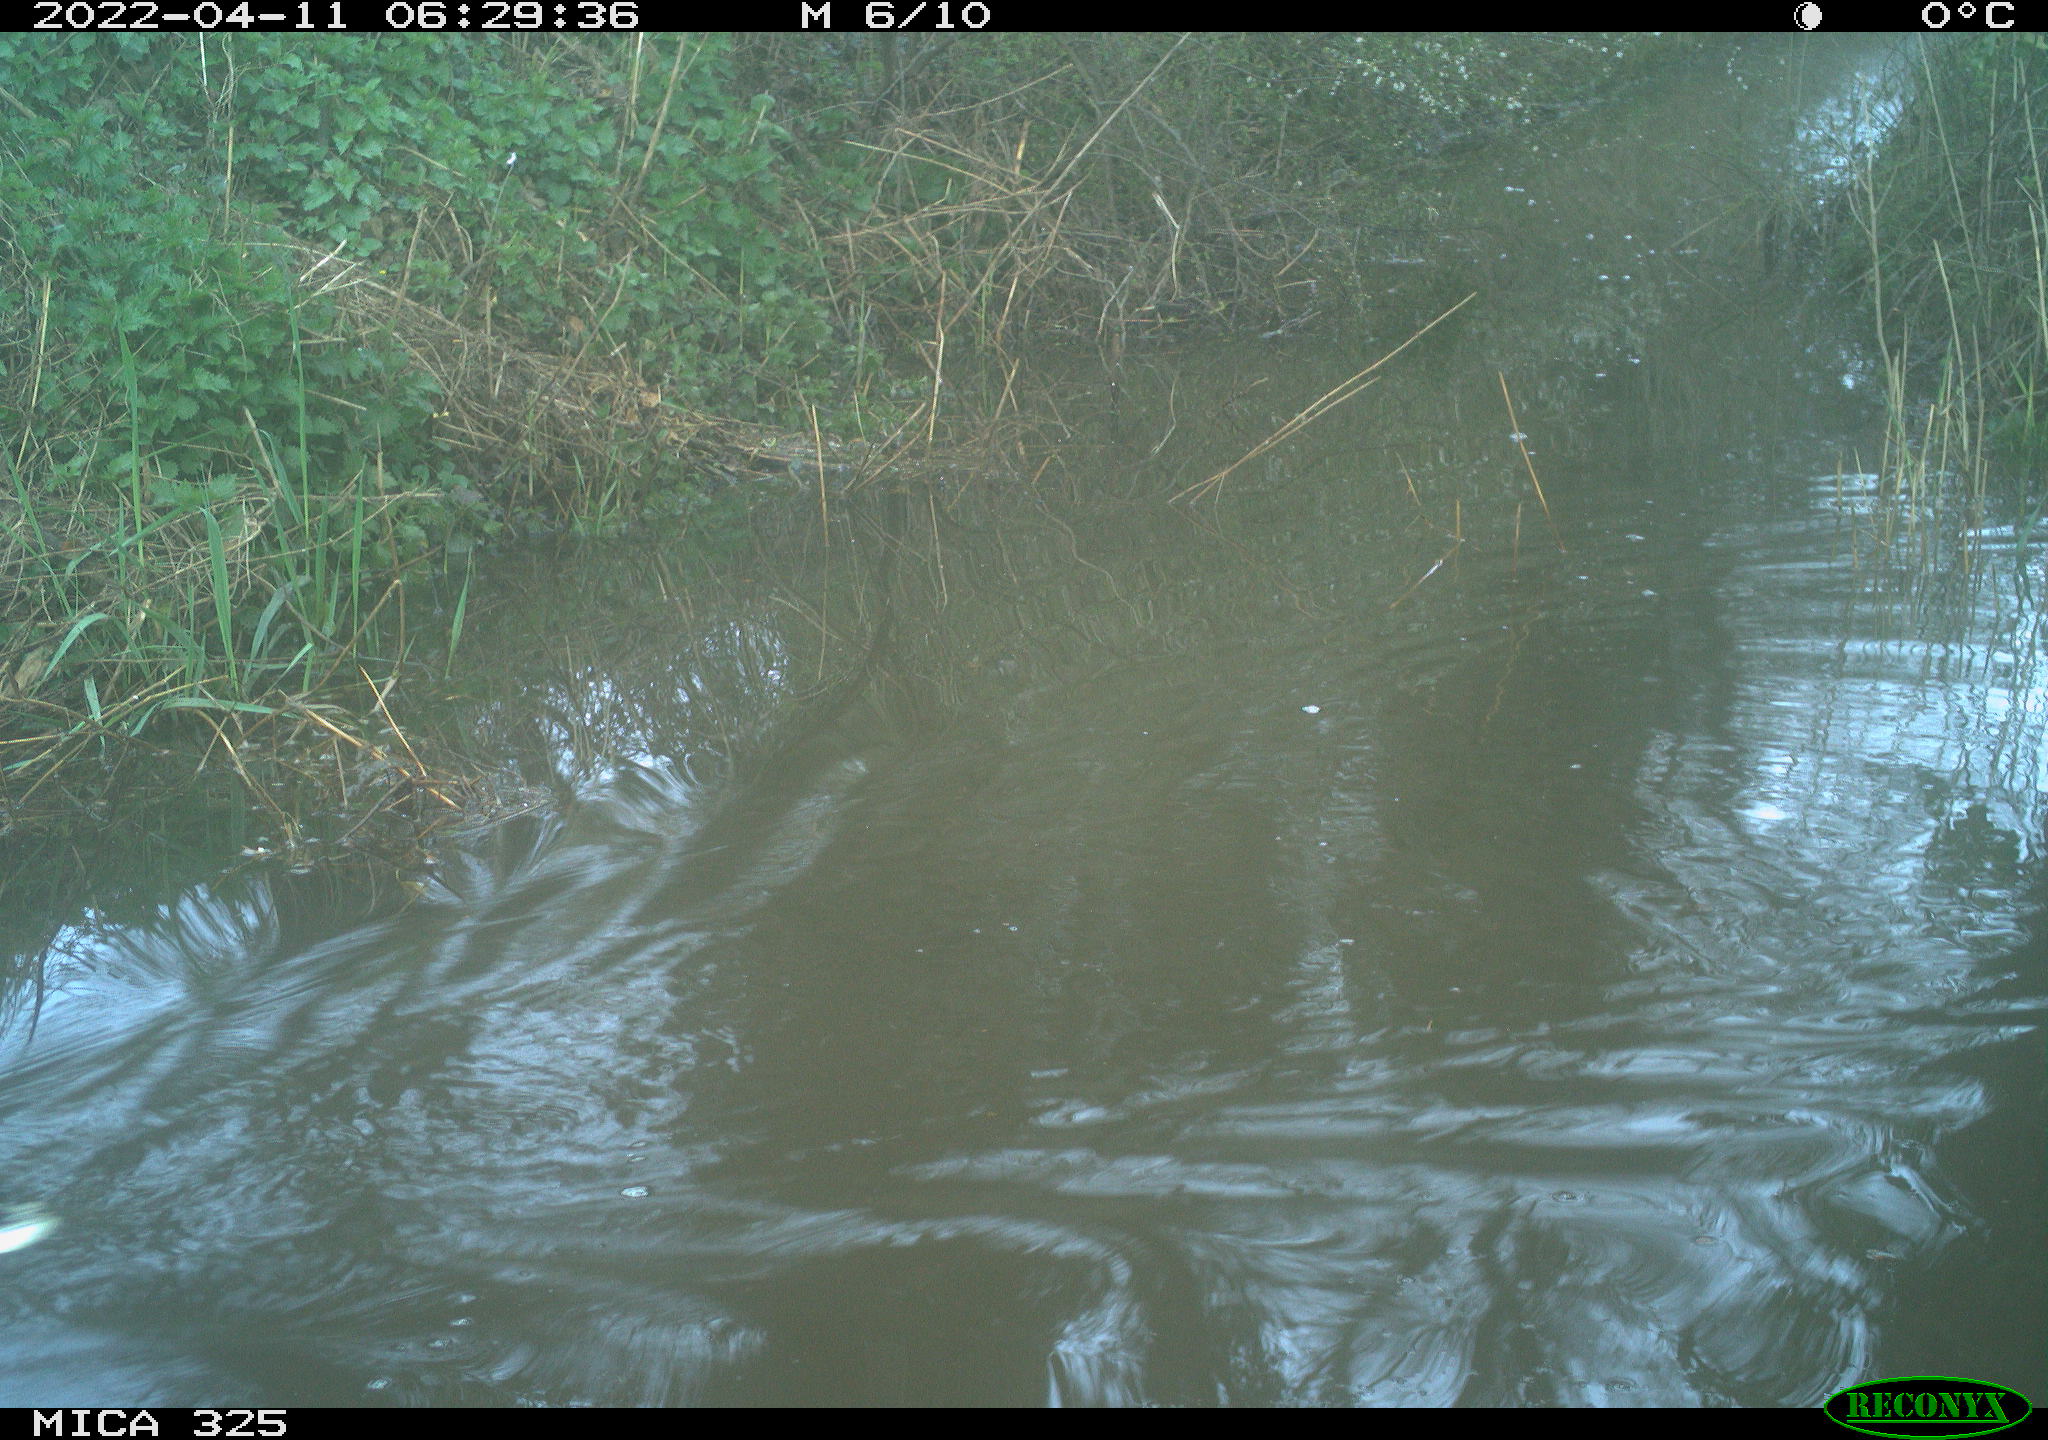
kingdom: Animalia
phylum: Chordata
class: Aves
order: Anseriformes
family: Anatidae
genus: Anas
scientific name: Anas platyrhynchos
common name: Mallard
